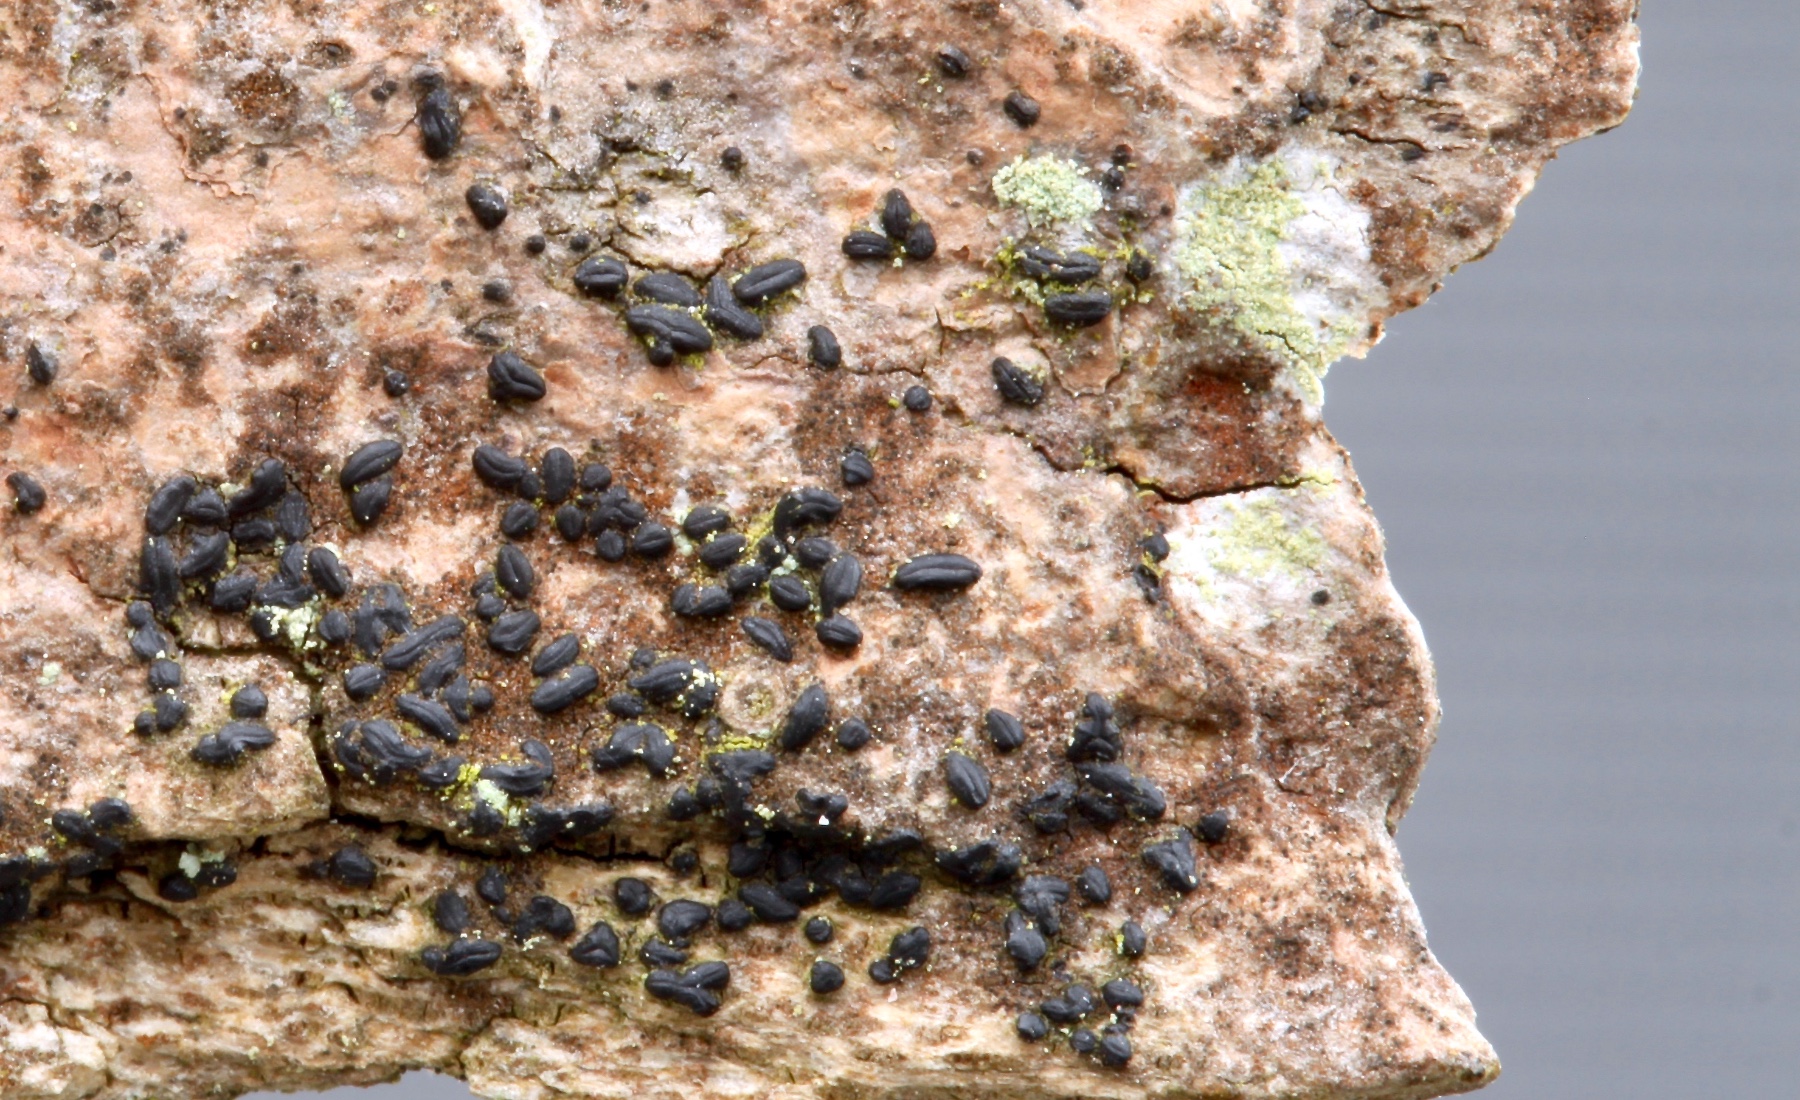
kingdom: Fungi
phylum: Ascomycota
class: Dothideomycetes
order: Hysteriales
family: Hysteriaceae
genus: Hysterium
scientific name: Hysterium
